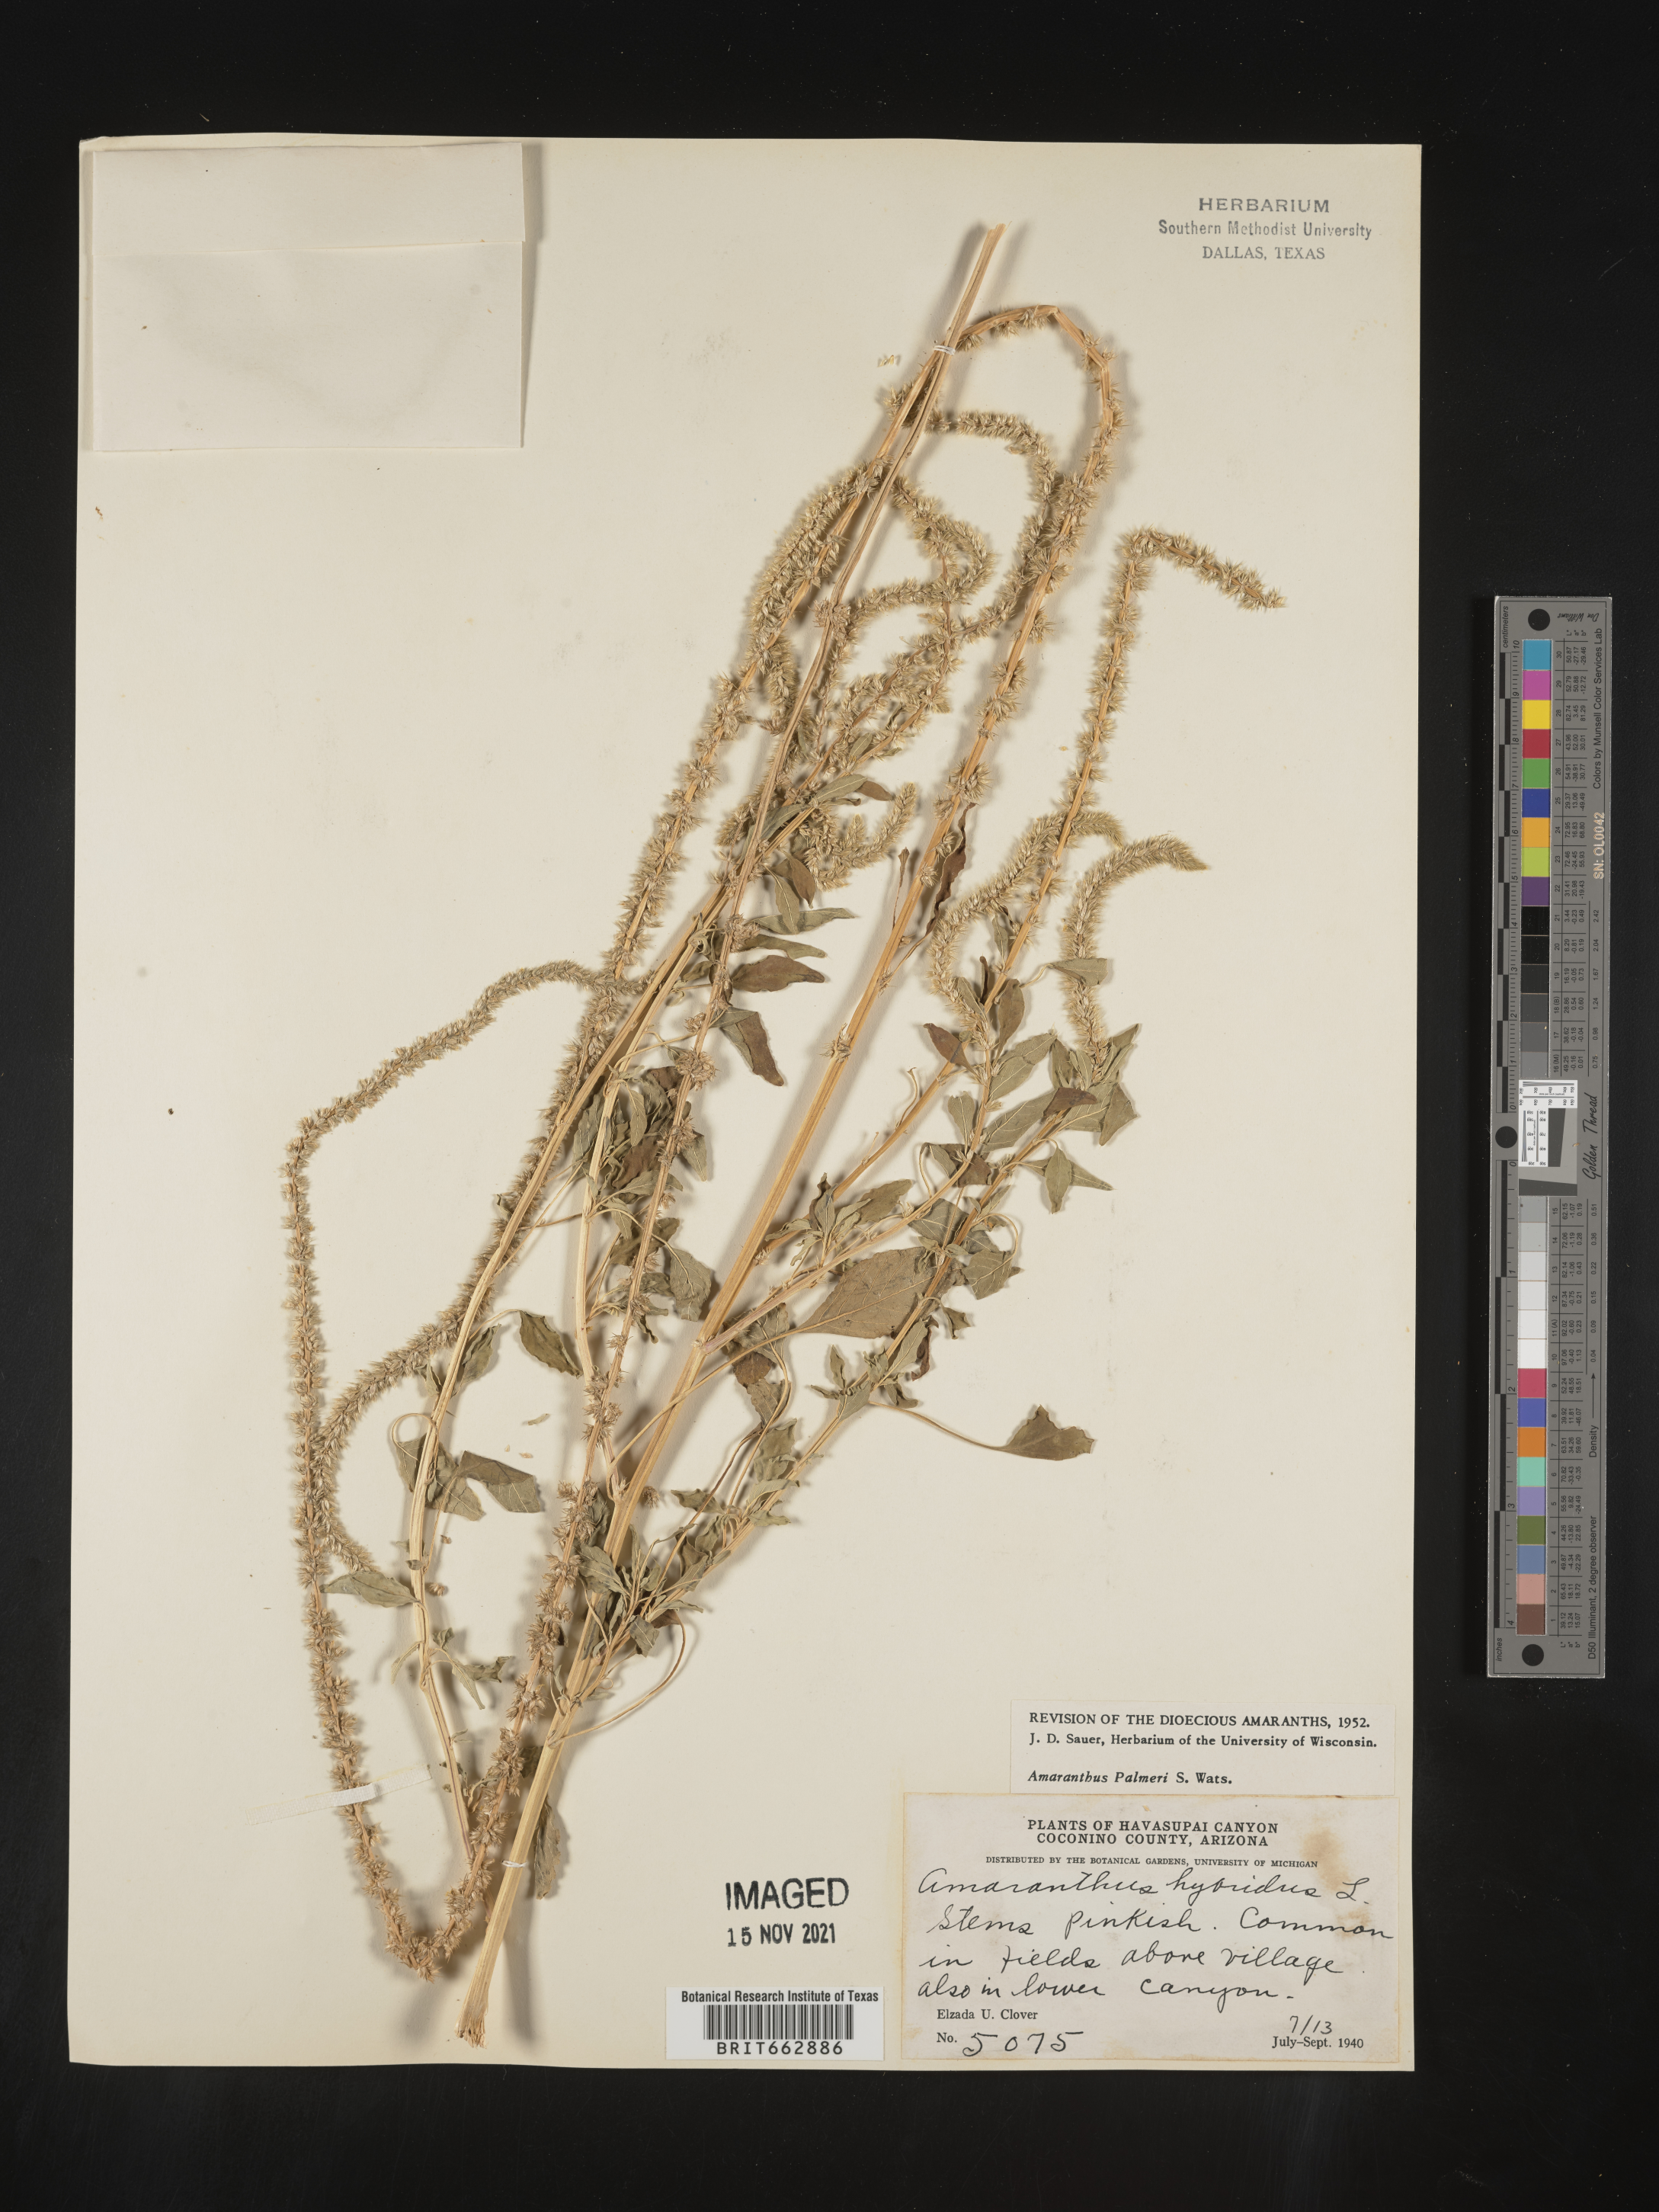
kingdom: Plantae
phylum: Tracheophyta
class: Magnoliopsida
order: Caryophyllales
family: Amaranthaceae
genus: Amaranthus
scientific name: Amaranthus palmeri
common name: Dioecious amaranth
